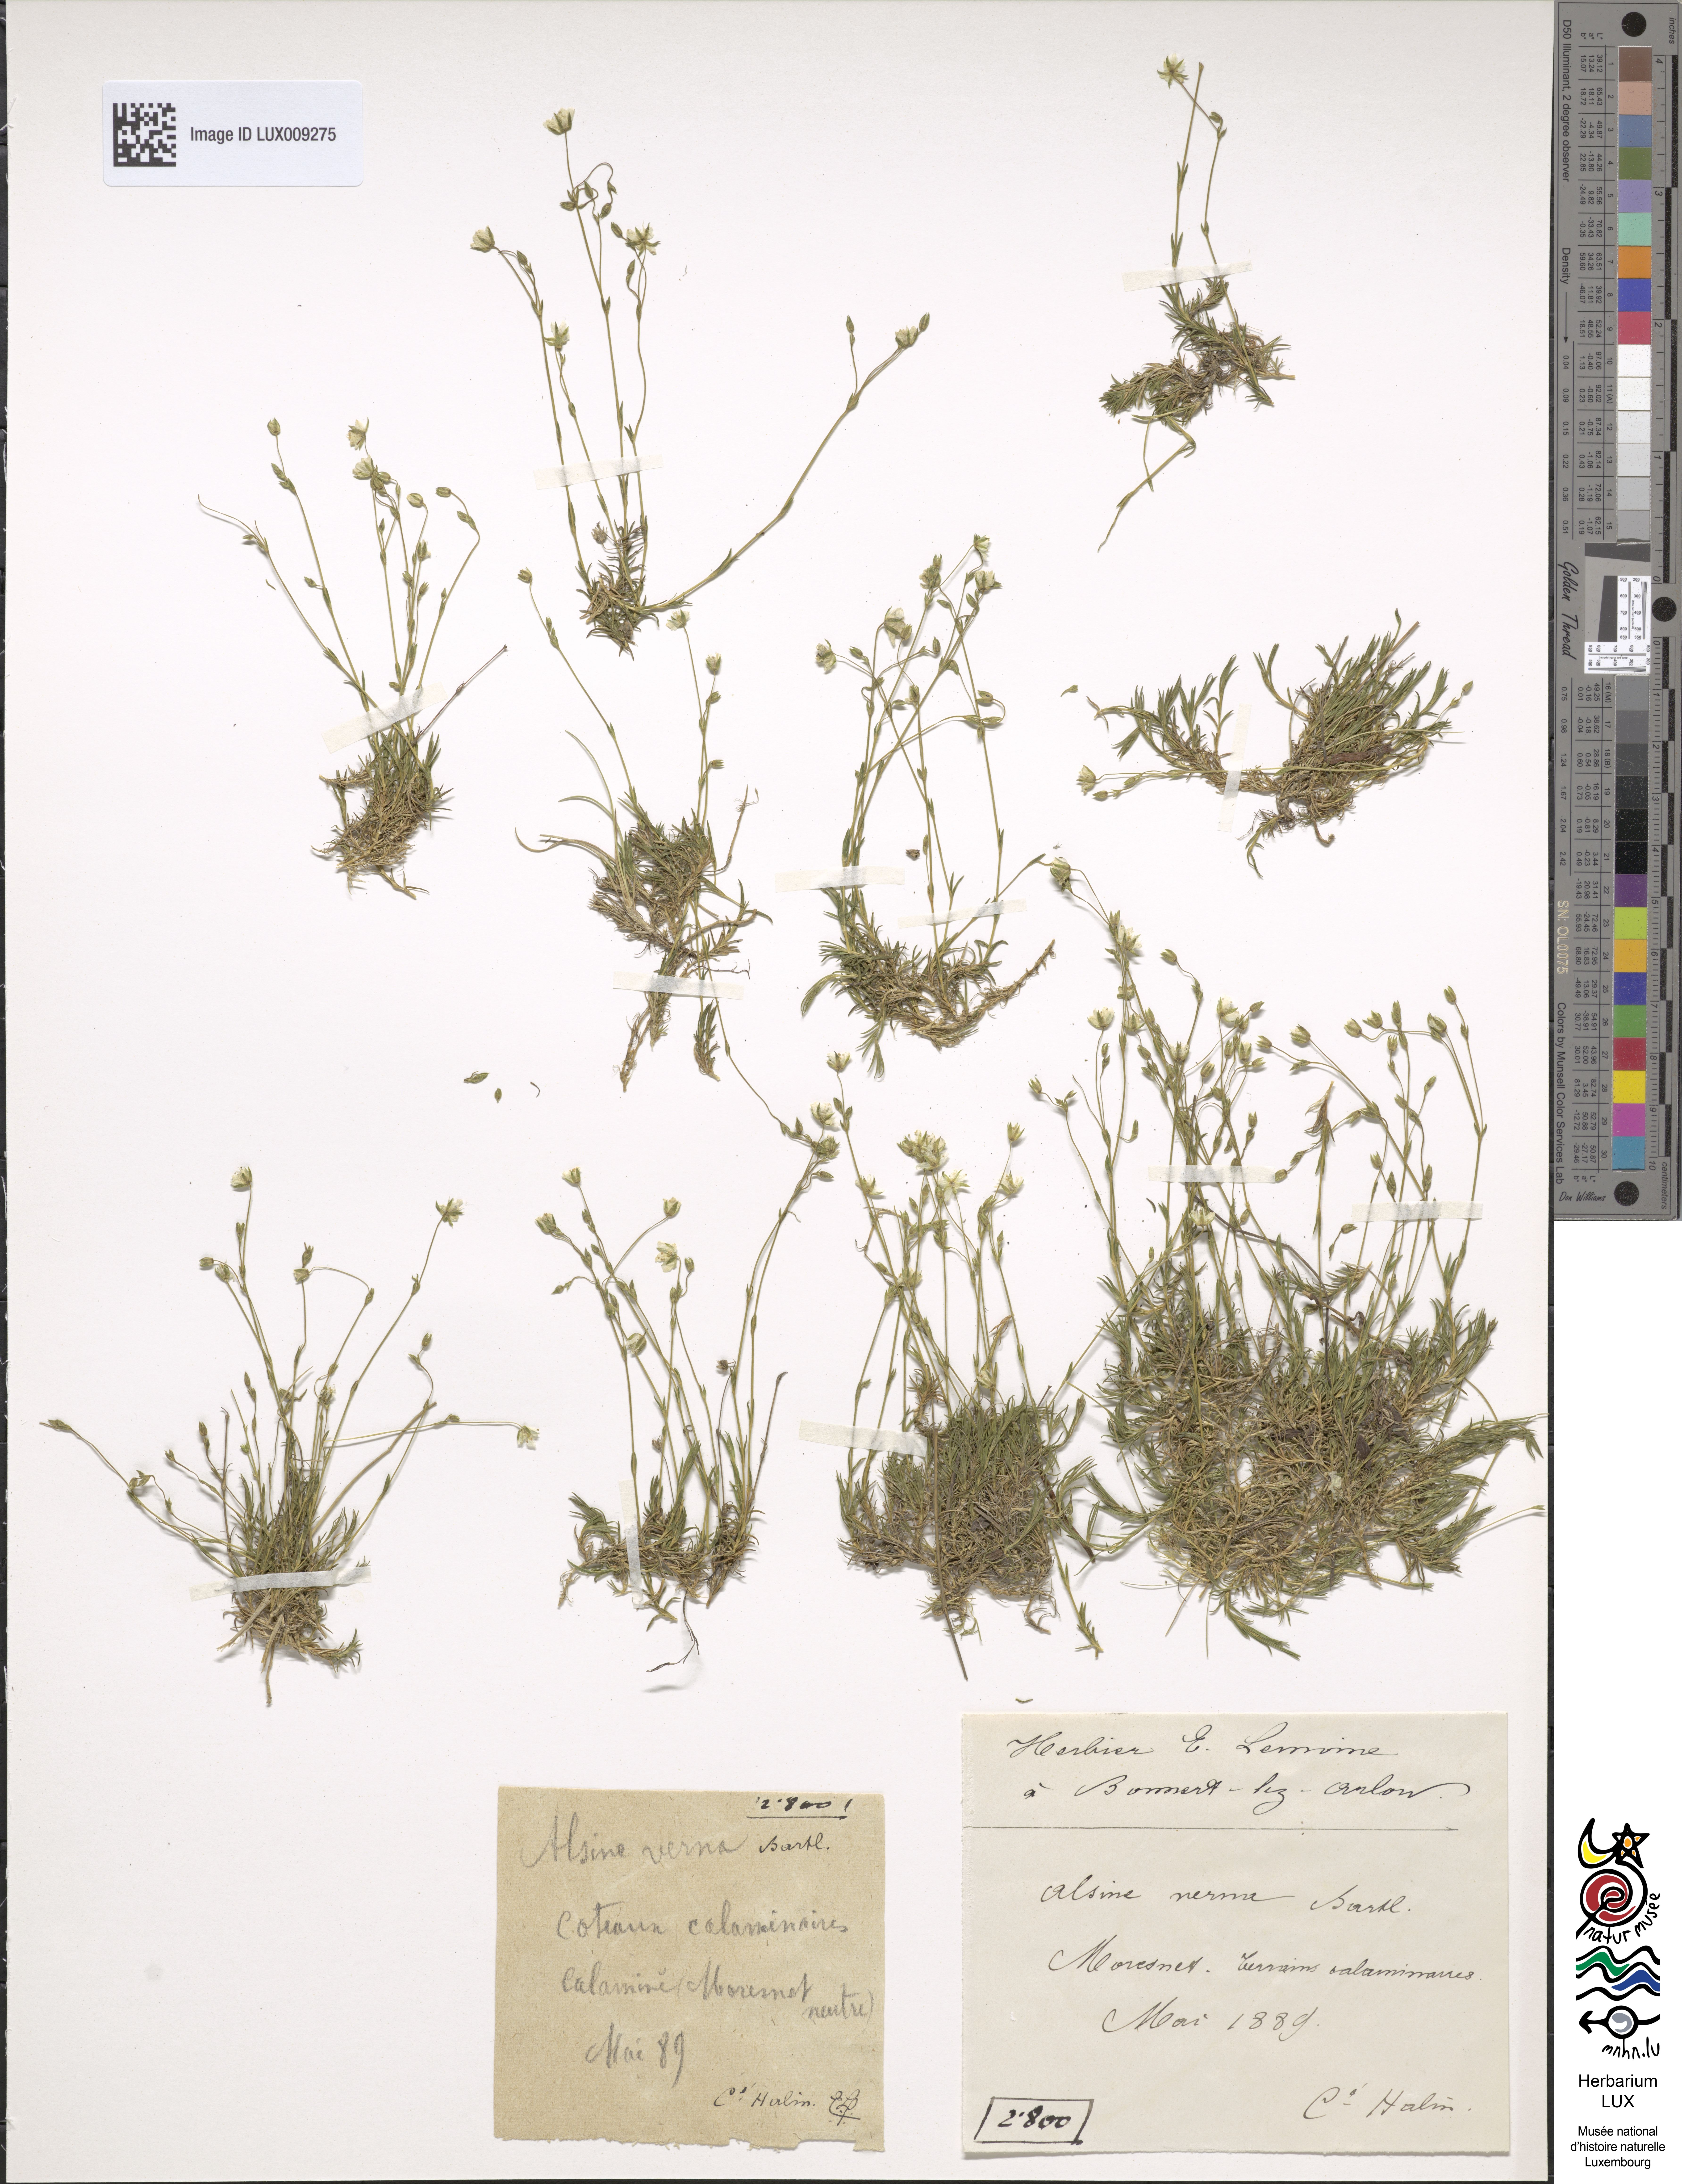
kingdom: Plantae
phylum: Tracheophyta
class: Magnoliopsida
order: Caryophyllales
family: Caryophyllaceae
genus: Sabulina
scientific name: Sabulina verna
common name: Spring sandwort
